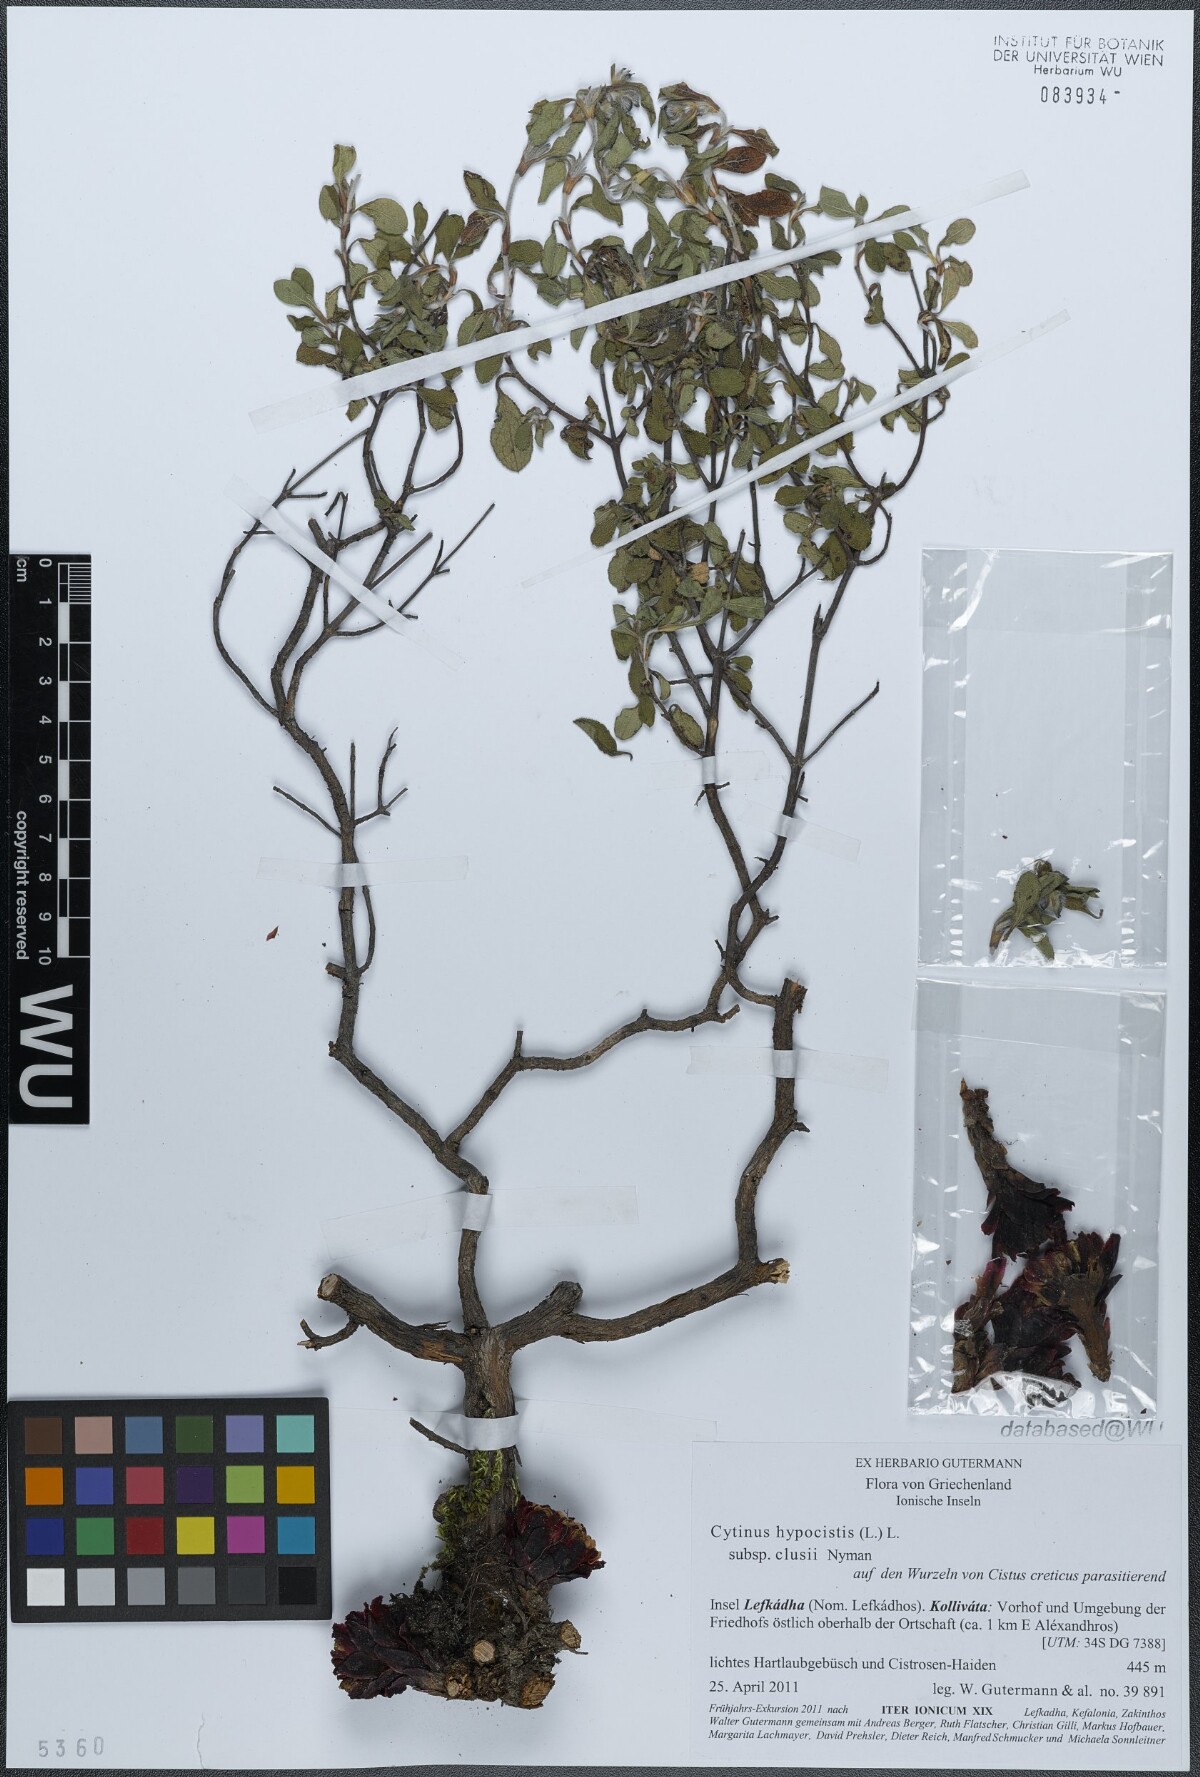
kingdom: Plantae
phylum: Tracheophyta
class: Magnoliopsida
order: Malvales
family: Cytinaceae
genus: Cytinus
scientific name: Cytinus ruber
